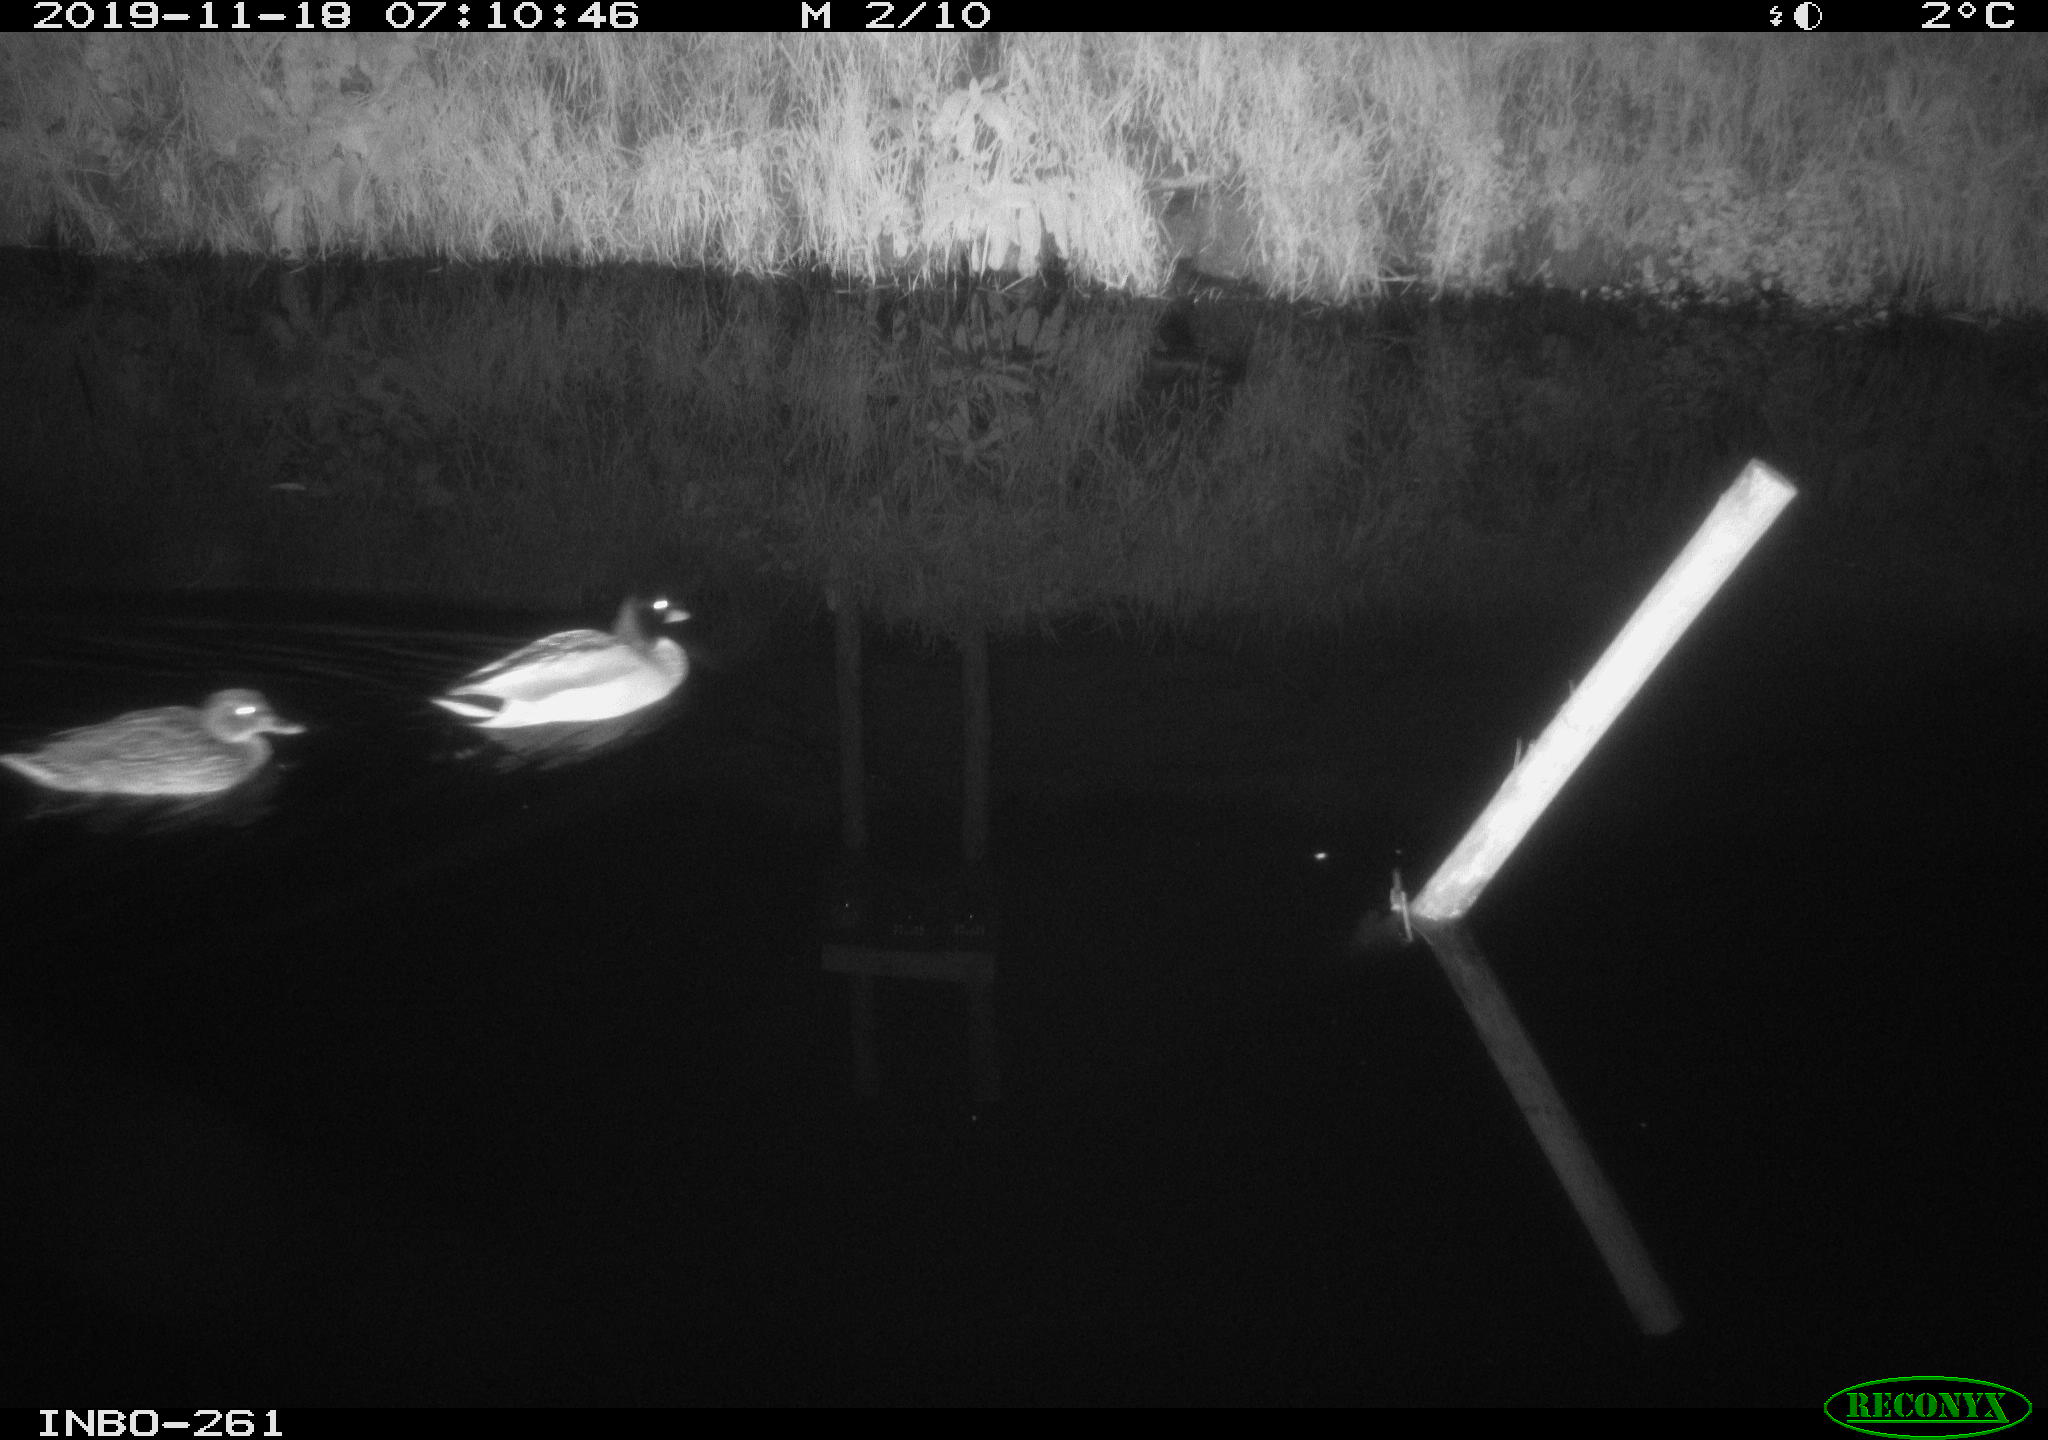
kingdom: Animalia
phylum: Chordata
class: Aves
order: Anseriformes
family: Anatidae
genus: Anas
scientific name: Anas platyrhynchos
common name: Mallard
